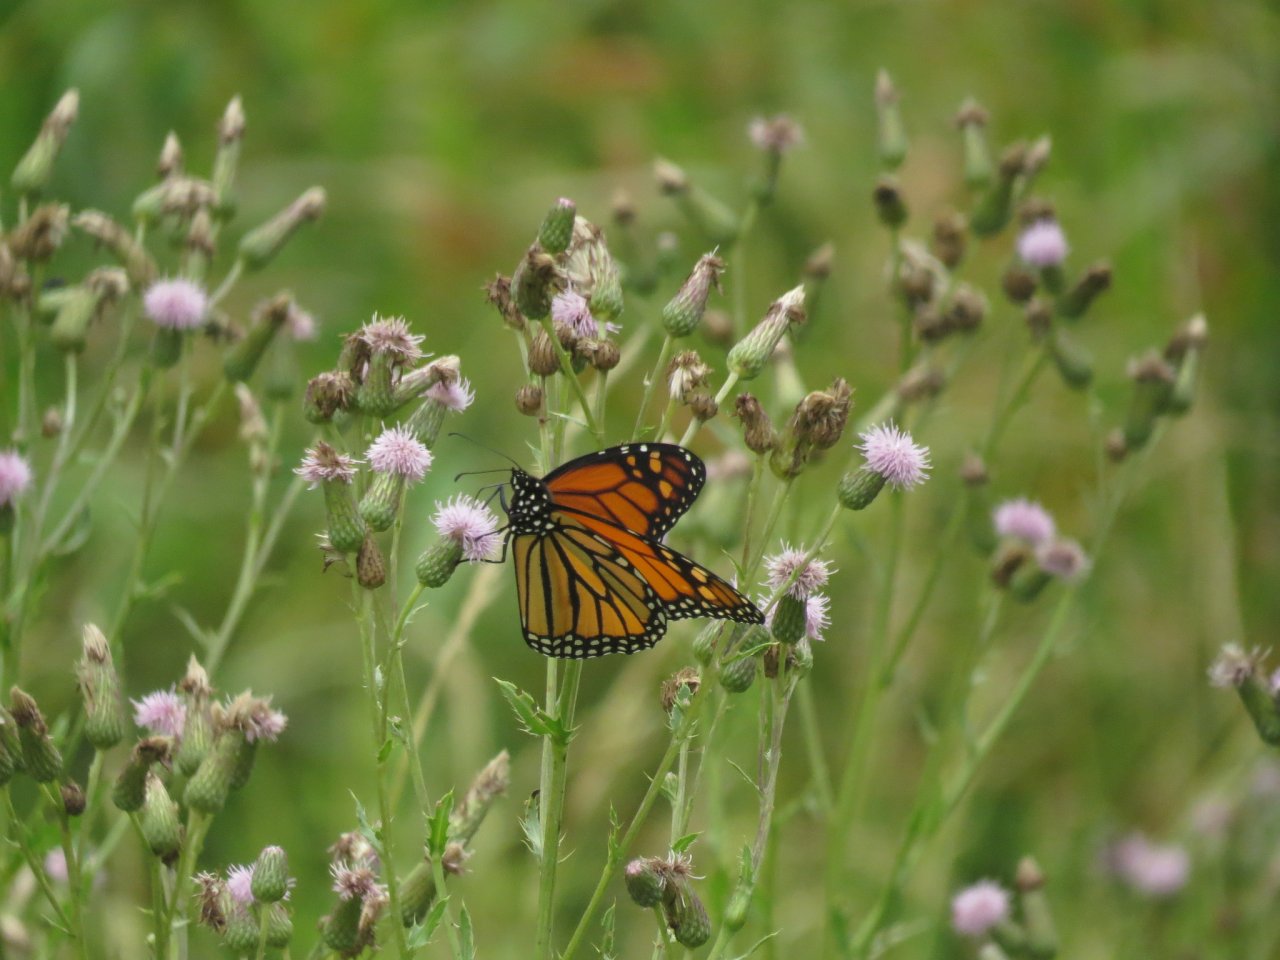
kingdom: Animalia
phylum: Arthropoda
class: Insecta
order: Lepidoptera
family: Nymphalidae
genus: Danaus
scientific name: Danaus plexippus
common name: Monarch
